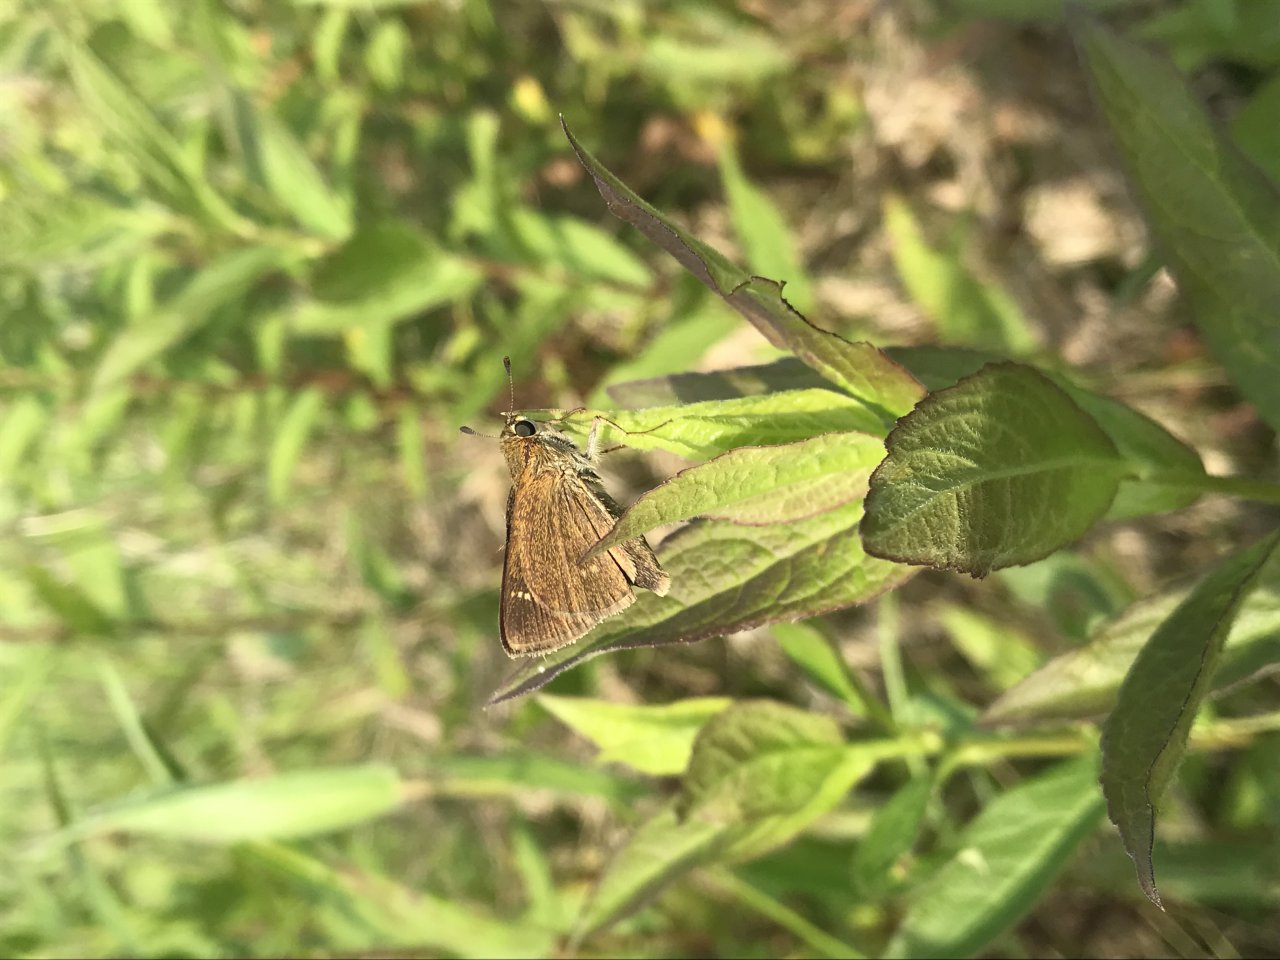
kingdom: Animalia
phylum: Arthropoda
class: Insecta
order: Lepidoptera
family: Hesperiidae
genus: Vernia
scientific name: Vernia verna
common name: Little Glassywing
